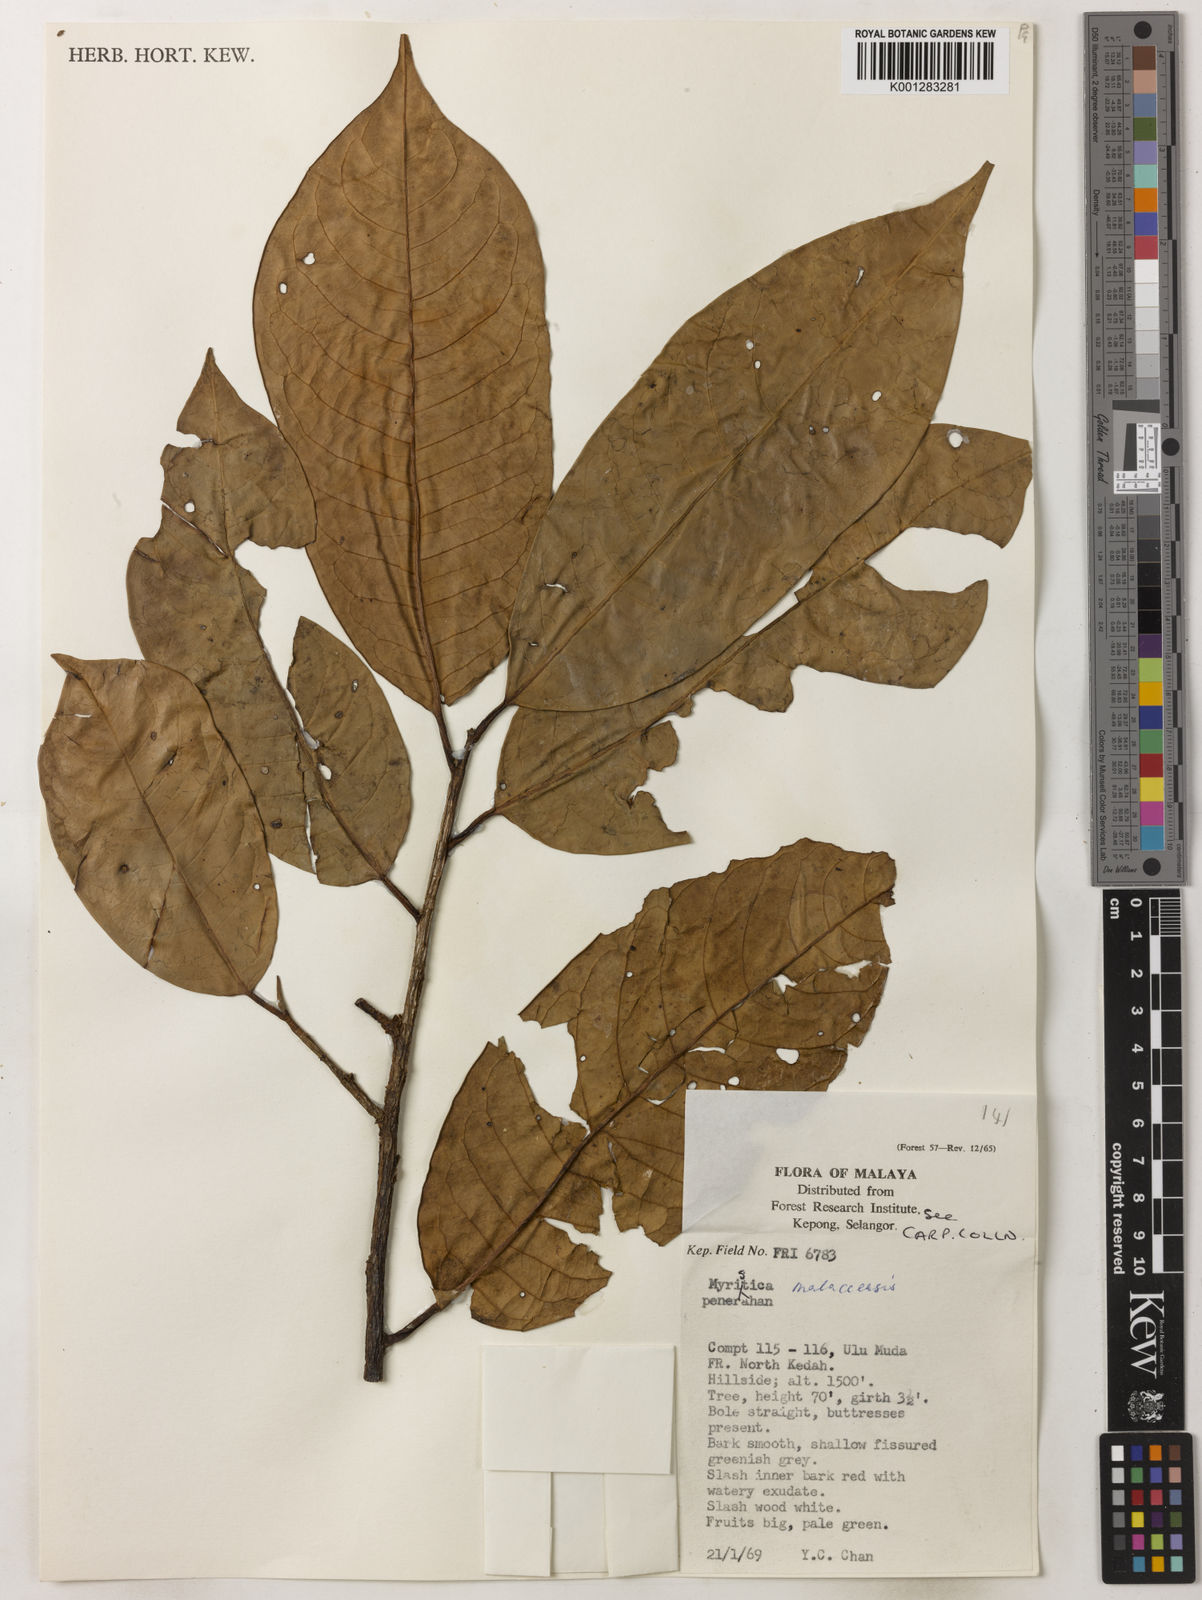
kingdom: Plantae
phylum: Tracheophyta
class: Magnoliopsida
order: Magnoliales
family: Myristicaceae
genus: Myristica
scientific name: Myristica malaccensis
